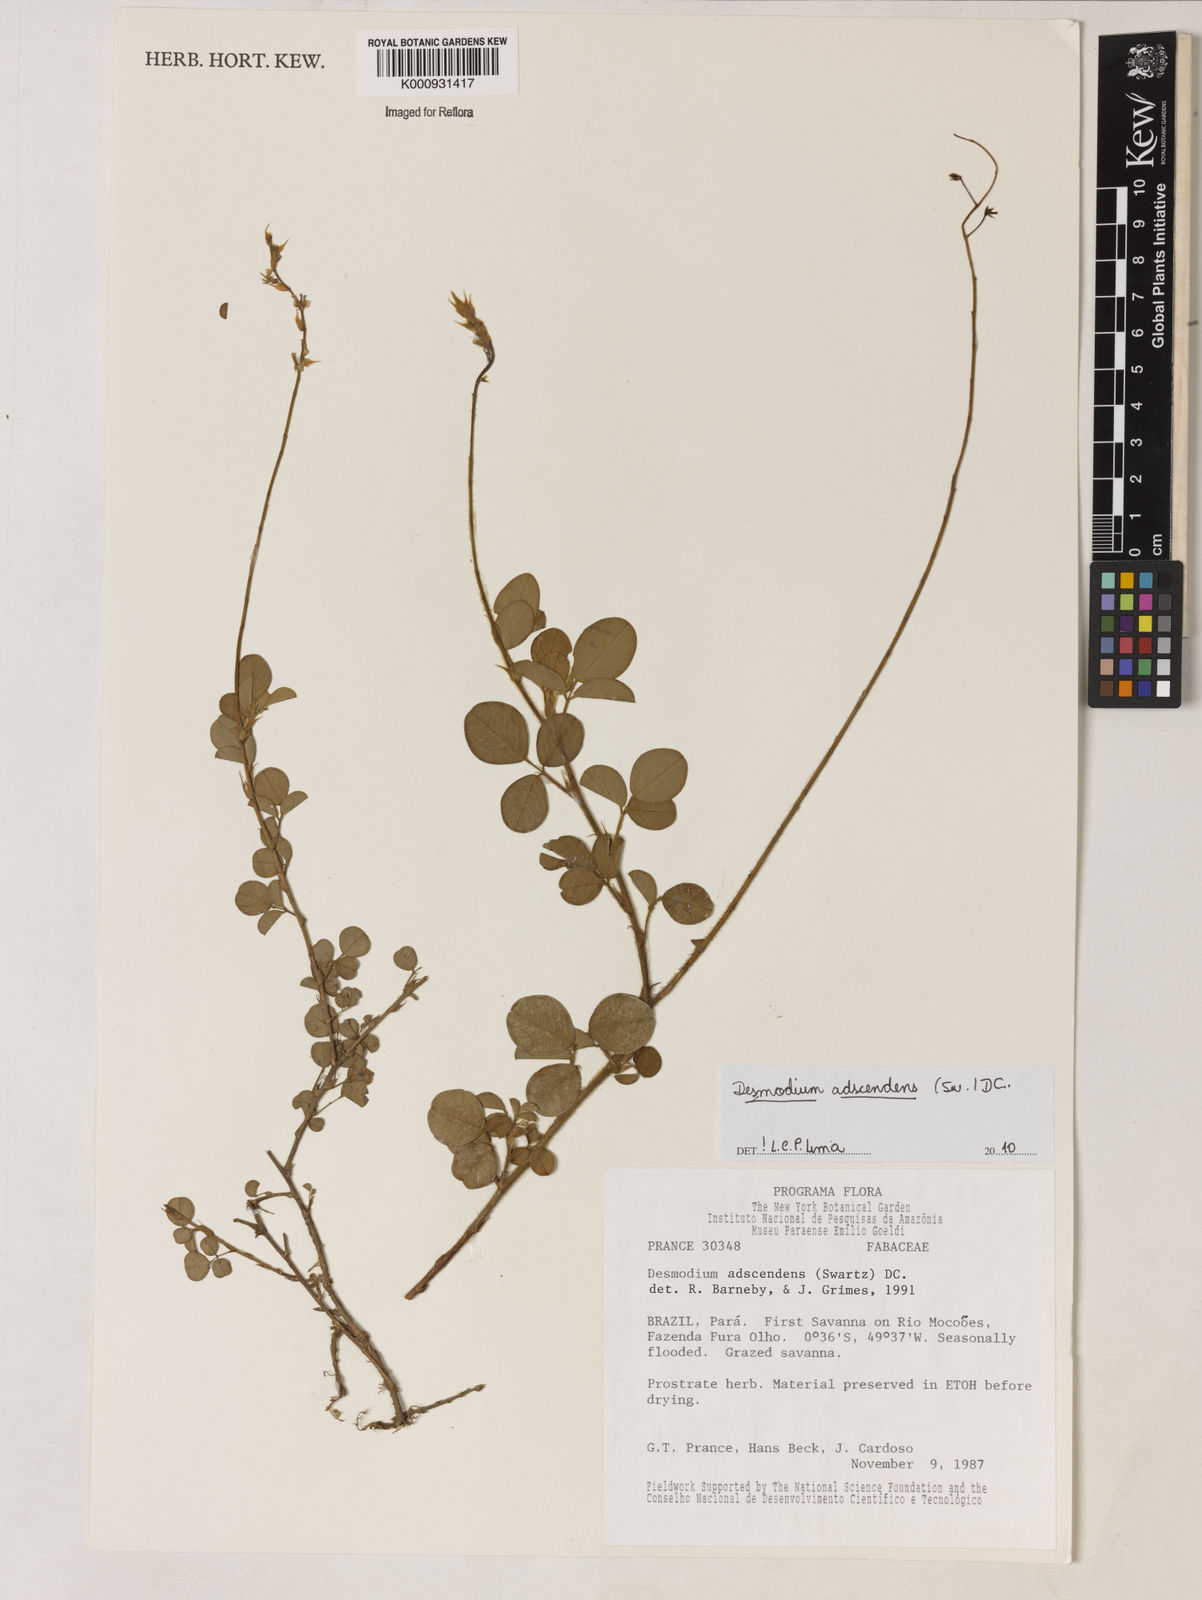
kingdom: Plantae
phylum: Tracheophyta
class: Magnoliopsida
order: Fabales
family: Fabaceae
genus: Grona
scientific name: Grona adscendens
